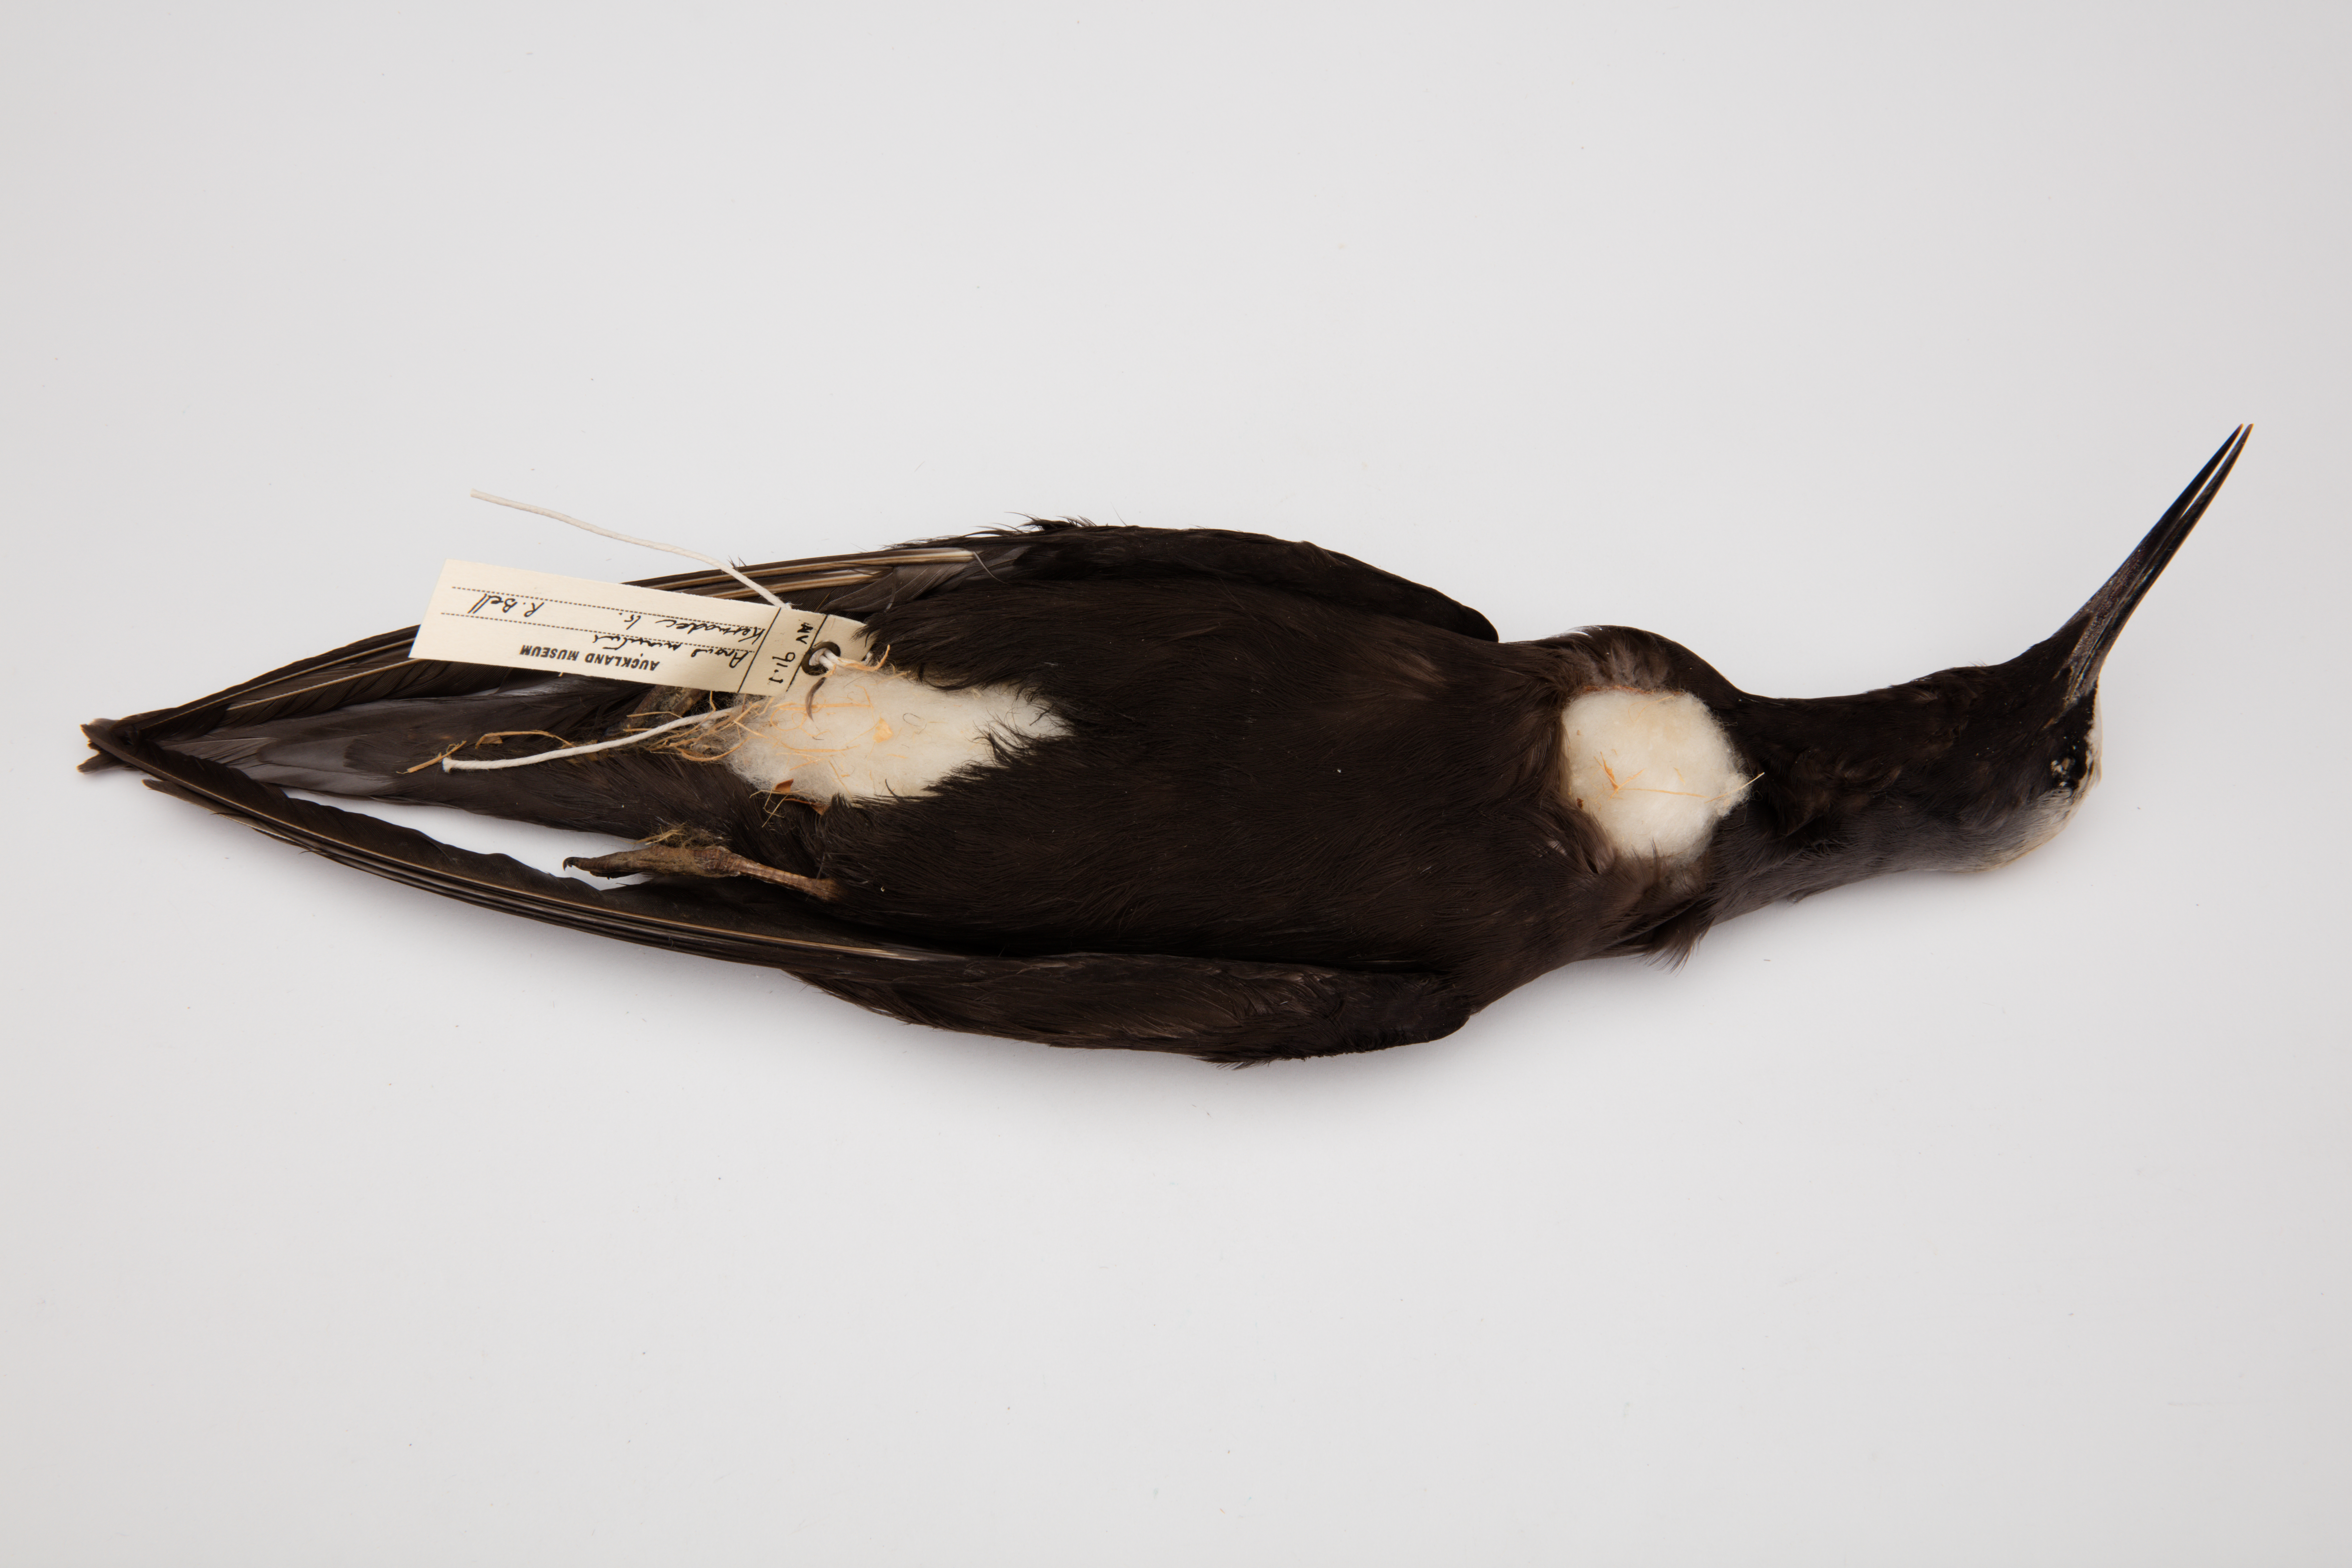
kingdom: Animalia
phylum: Chordata
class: Aves
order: Charadriiformes
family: Laridae
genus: Anous
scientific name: Anous minutus
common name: Black noddy
